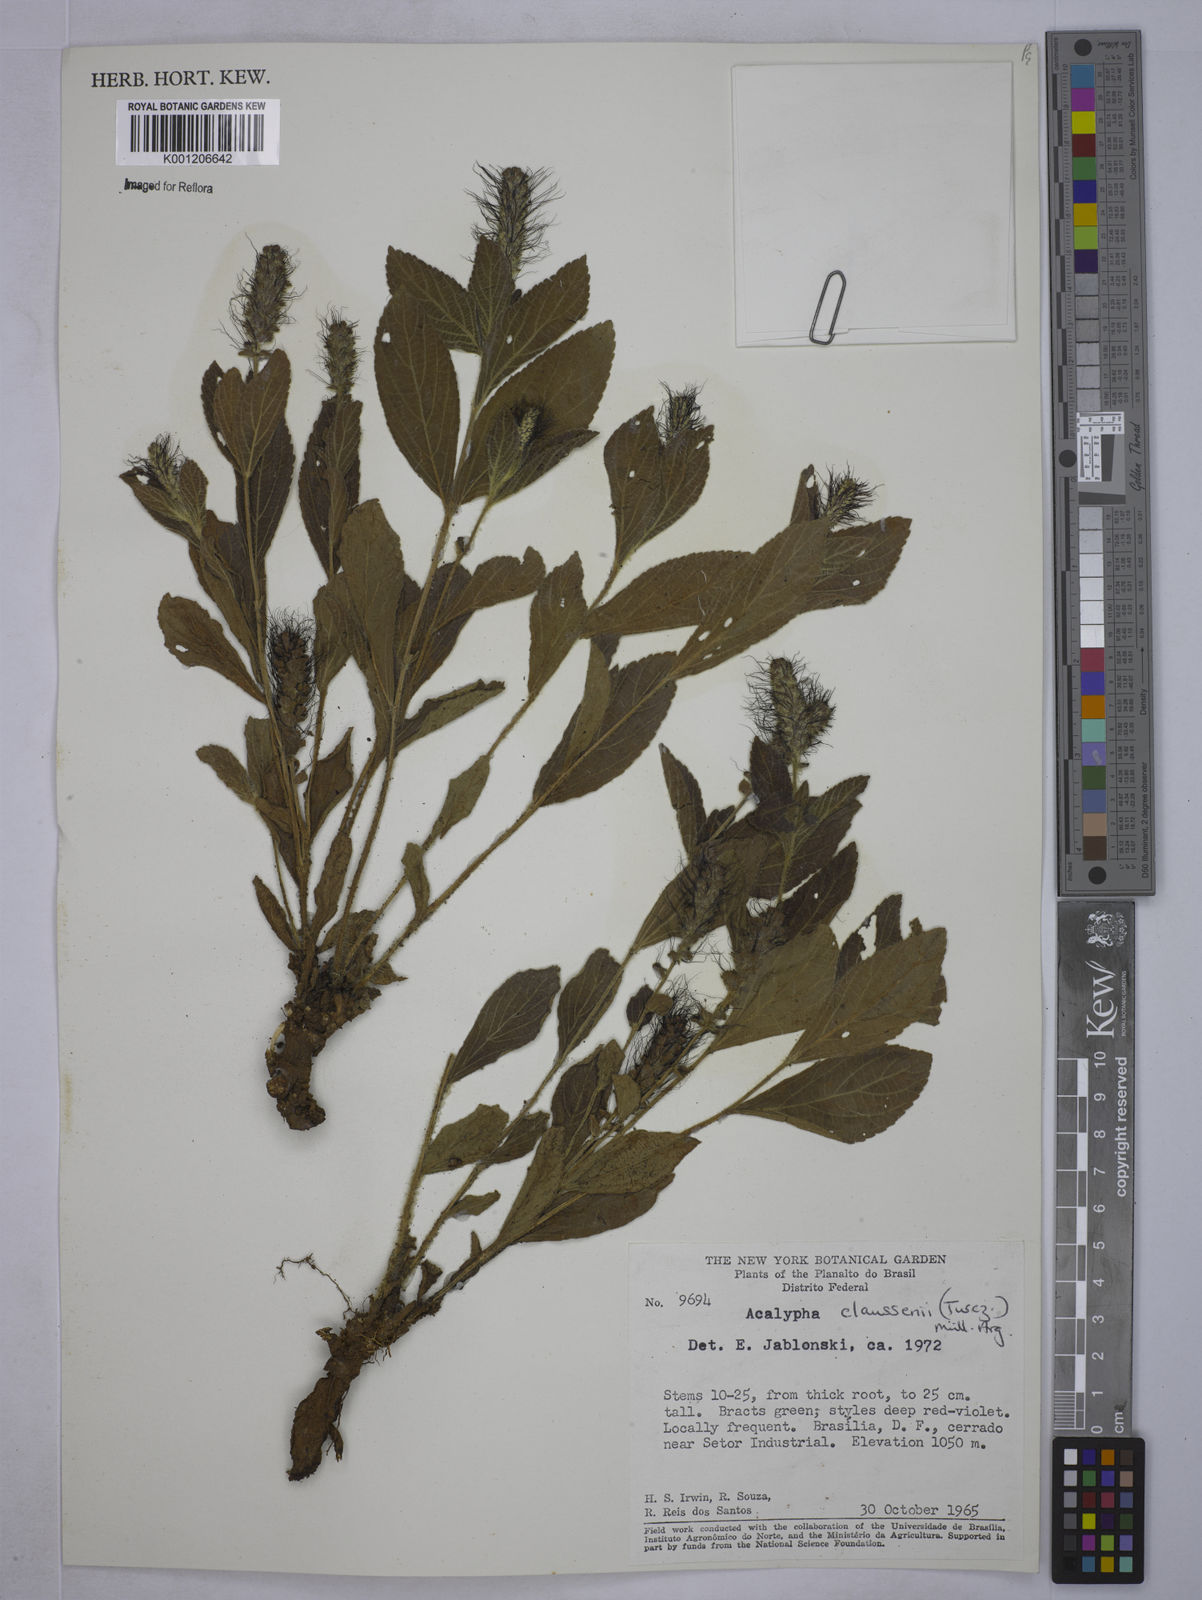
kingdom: Plantae
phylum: Tracheophyta
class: Magnoliopsida
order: Malpighiales
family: Euphorbiaceae
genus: Acalypha
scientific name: Acalypha
